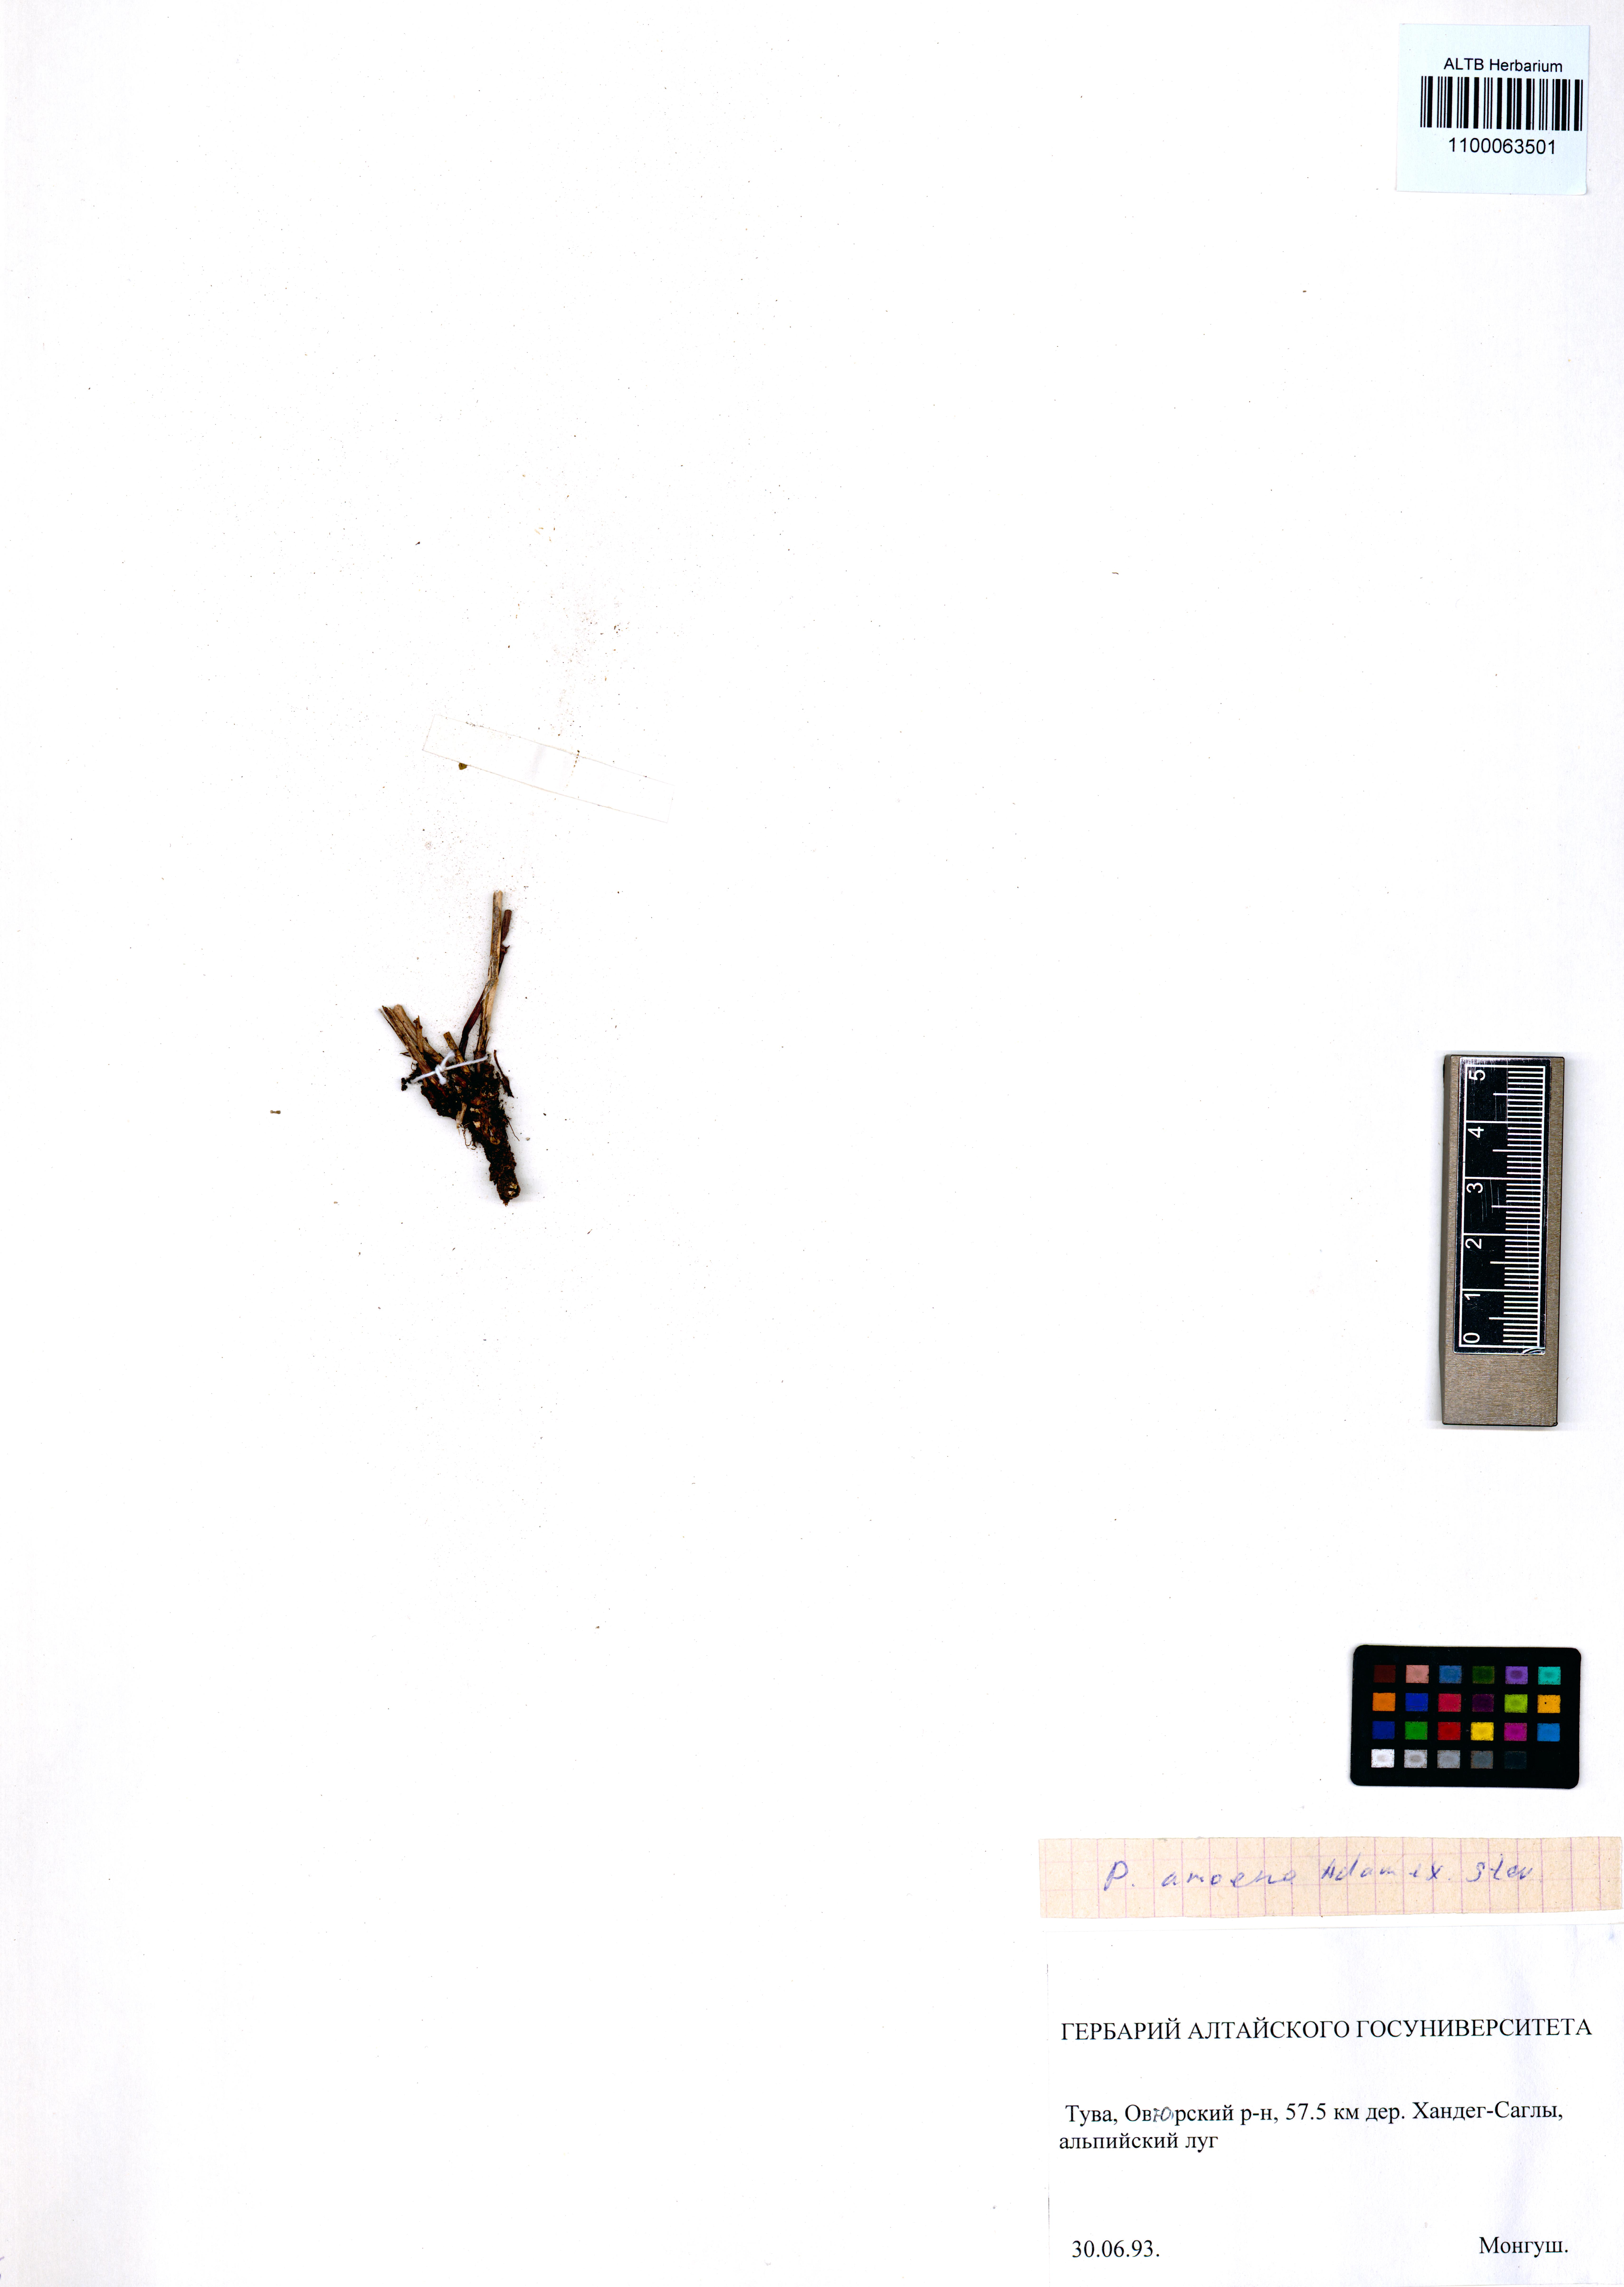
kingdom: Plantae
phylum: Tracheophyta
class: Magnoliopsida
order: Lamiales
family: Orobanchaceae
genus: Pedicularis
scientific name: Pedicularis amoena
